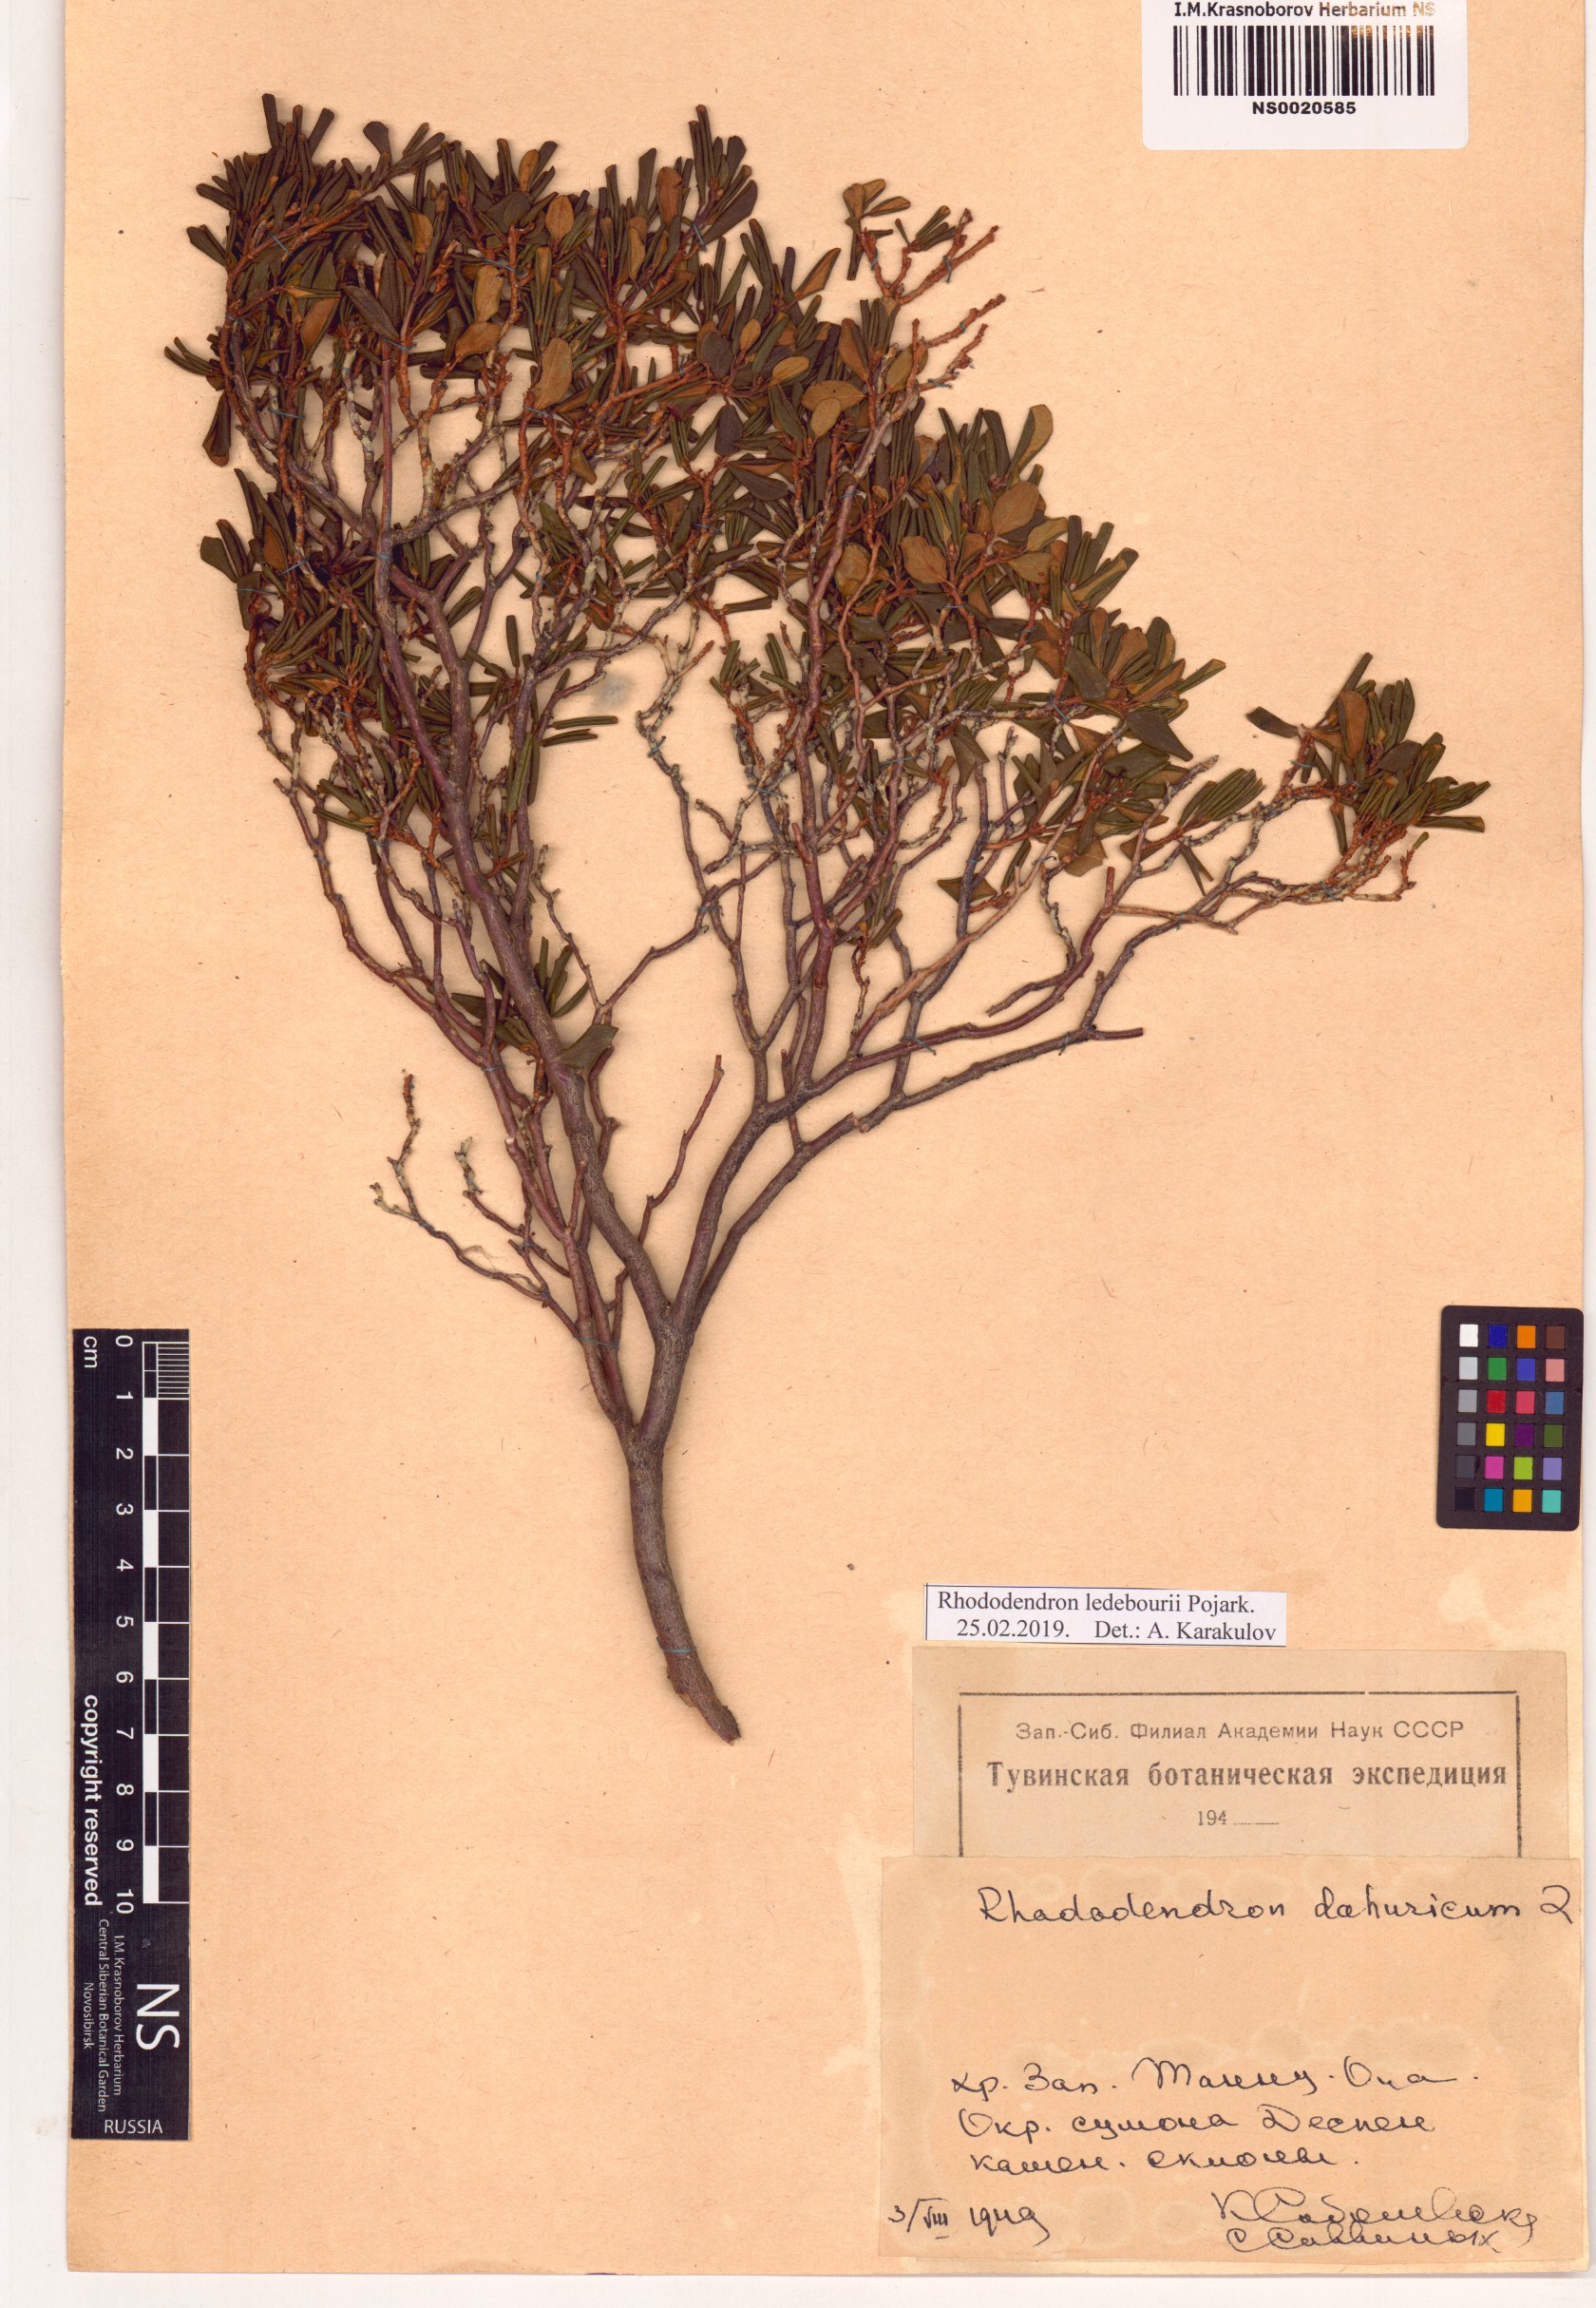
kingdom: Plantae
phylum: Tracheophyta
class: Magnoliopsida
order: Ericales
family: Ericaceae
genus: Rhododendron
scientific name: Rhododendron dauricum
